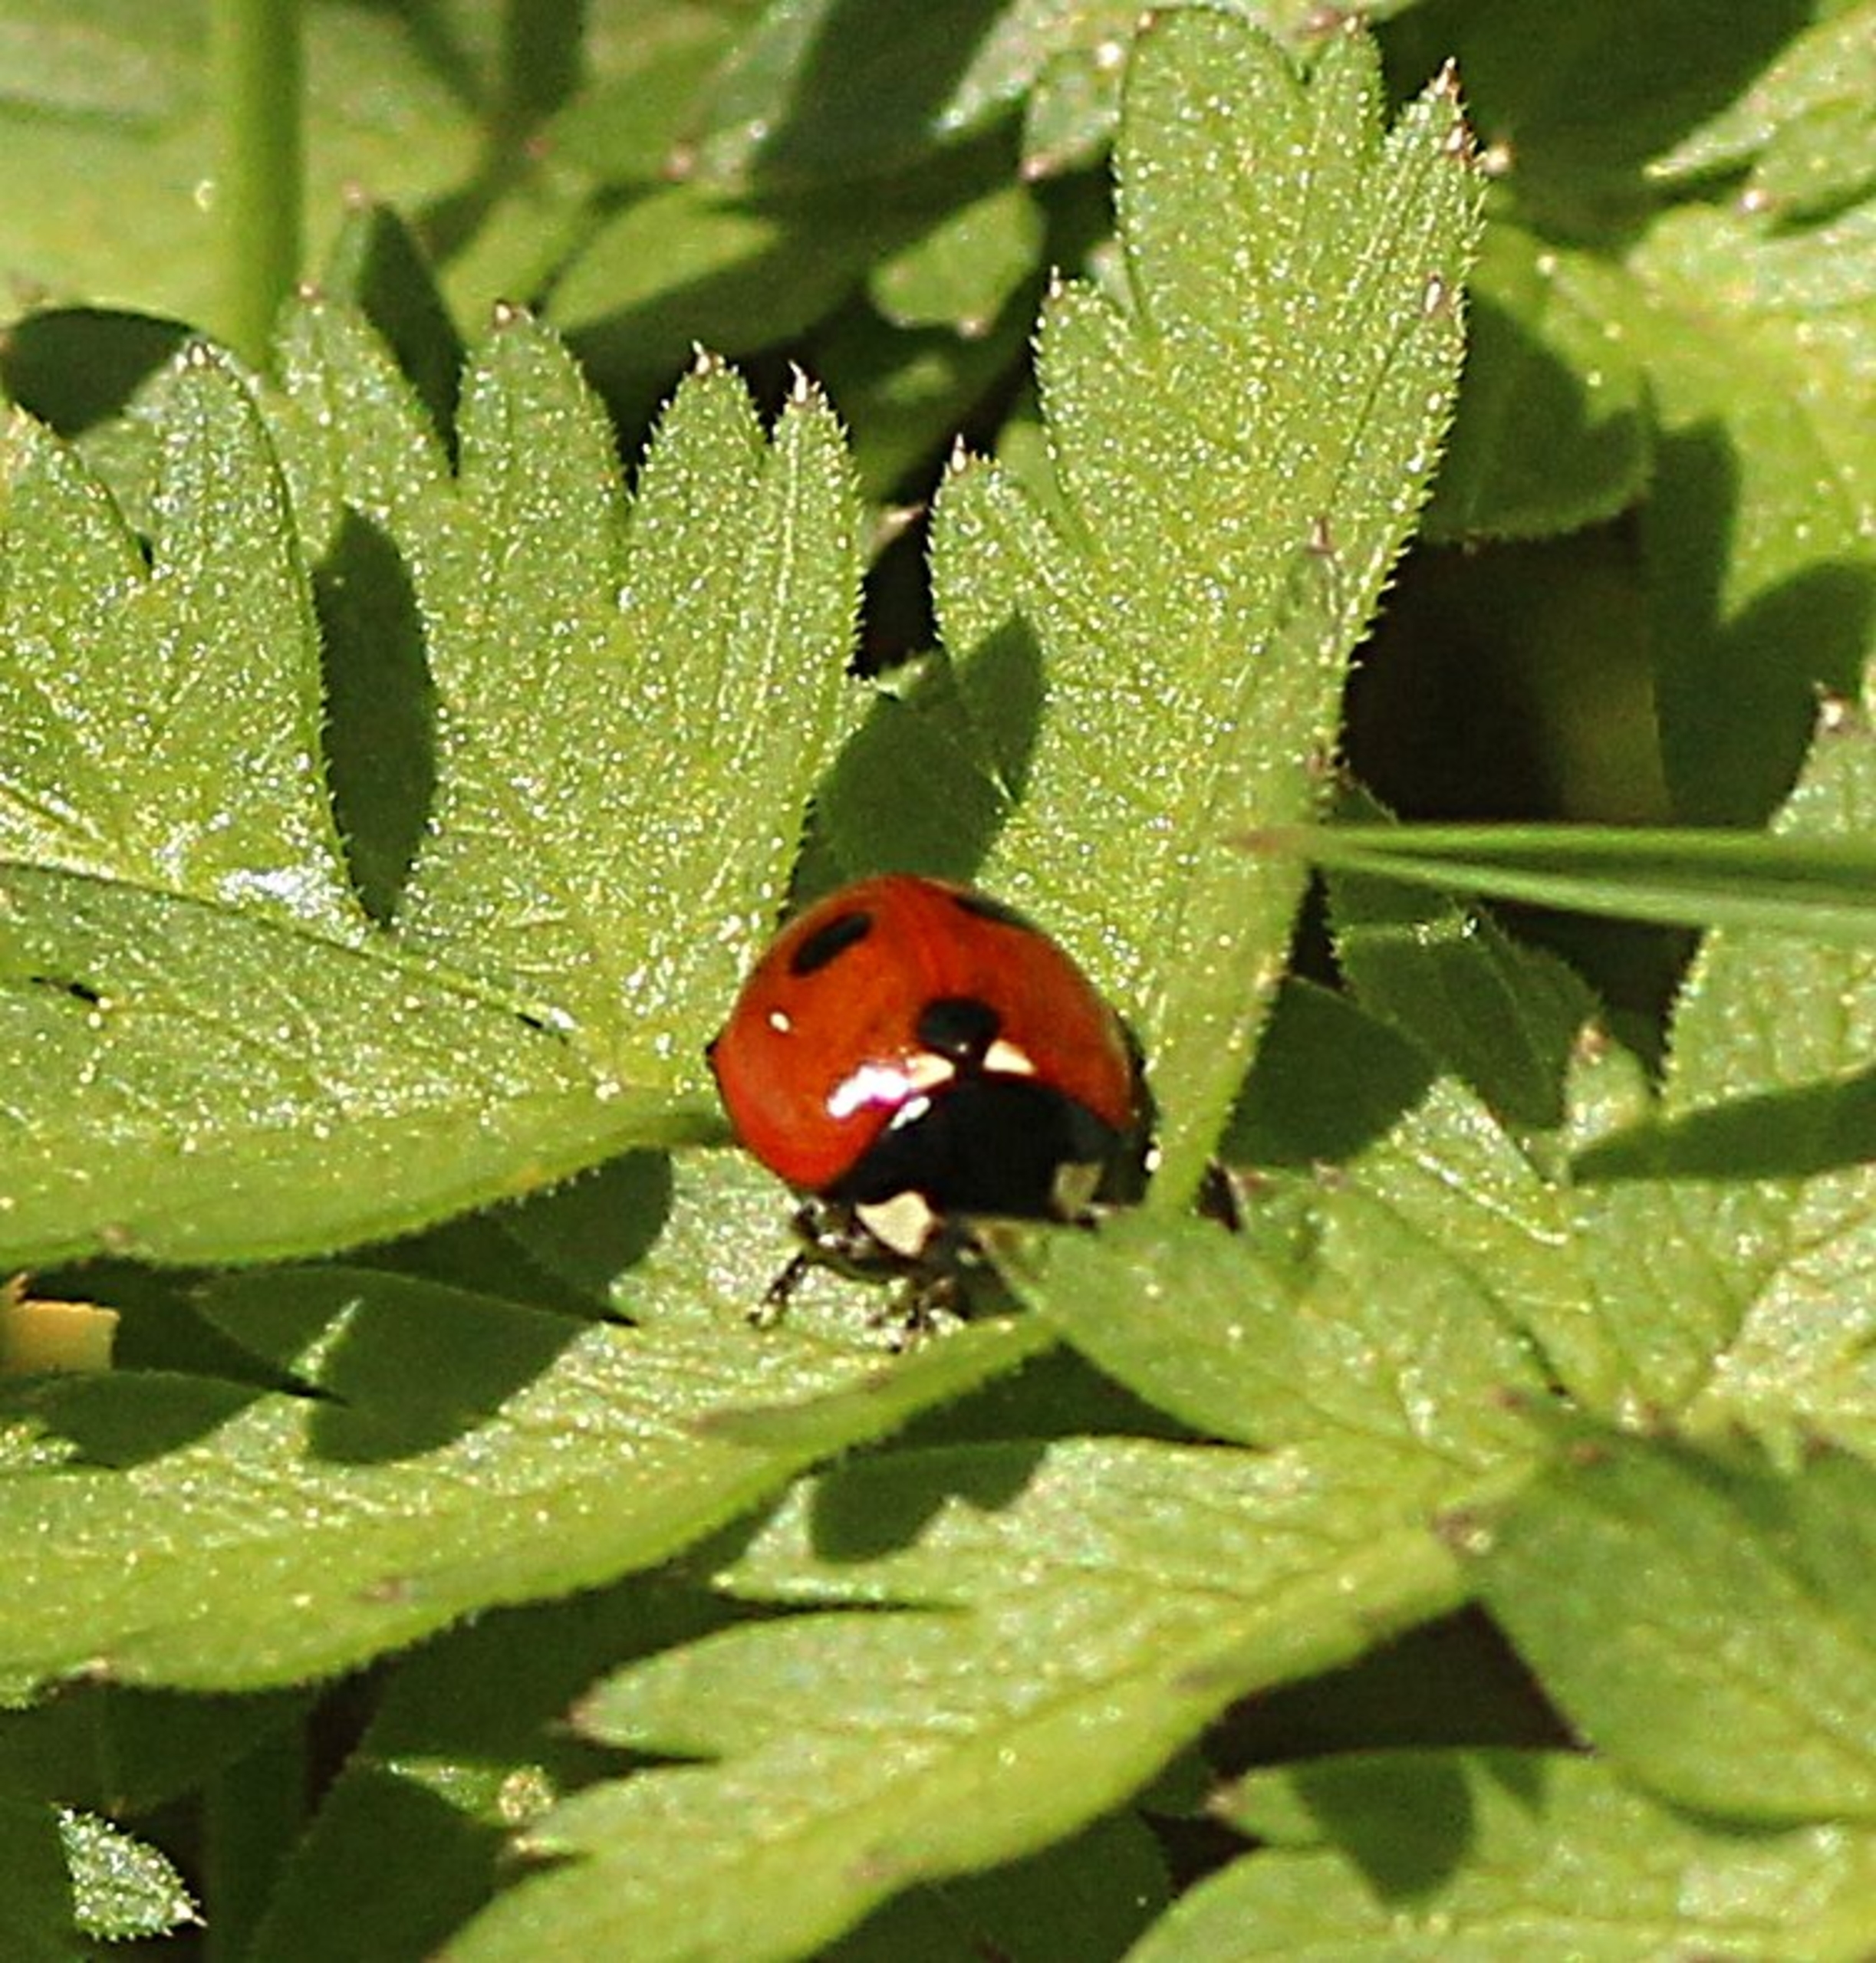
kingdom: Animalia
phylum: Arthropoda
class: Insecta
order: Coleoptera
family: Coccinellidae
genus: Adalia
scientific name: Adalia bipunctata
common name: Toplettet mariehøne
